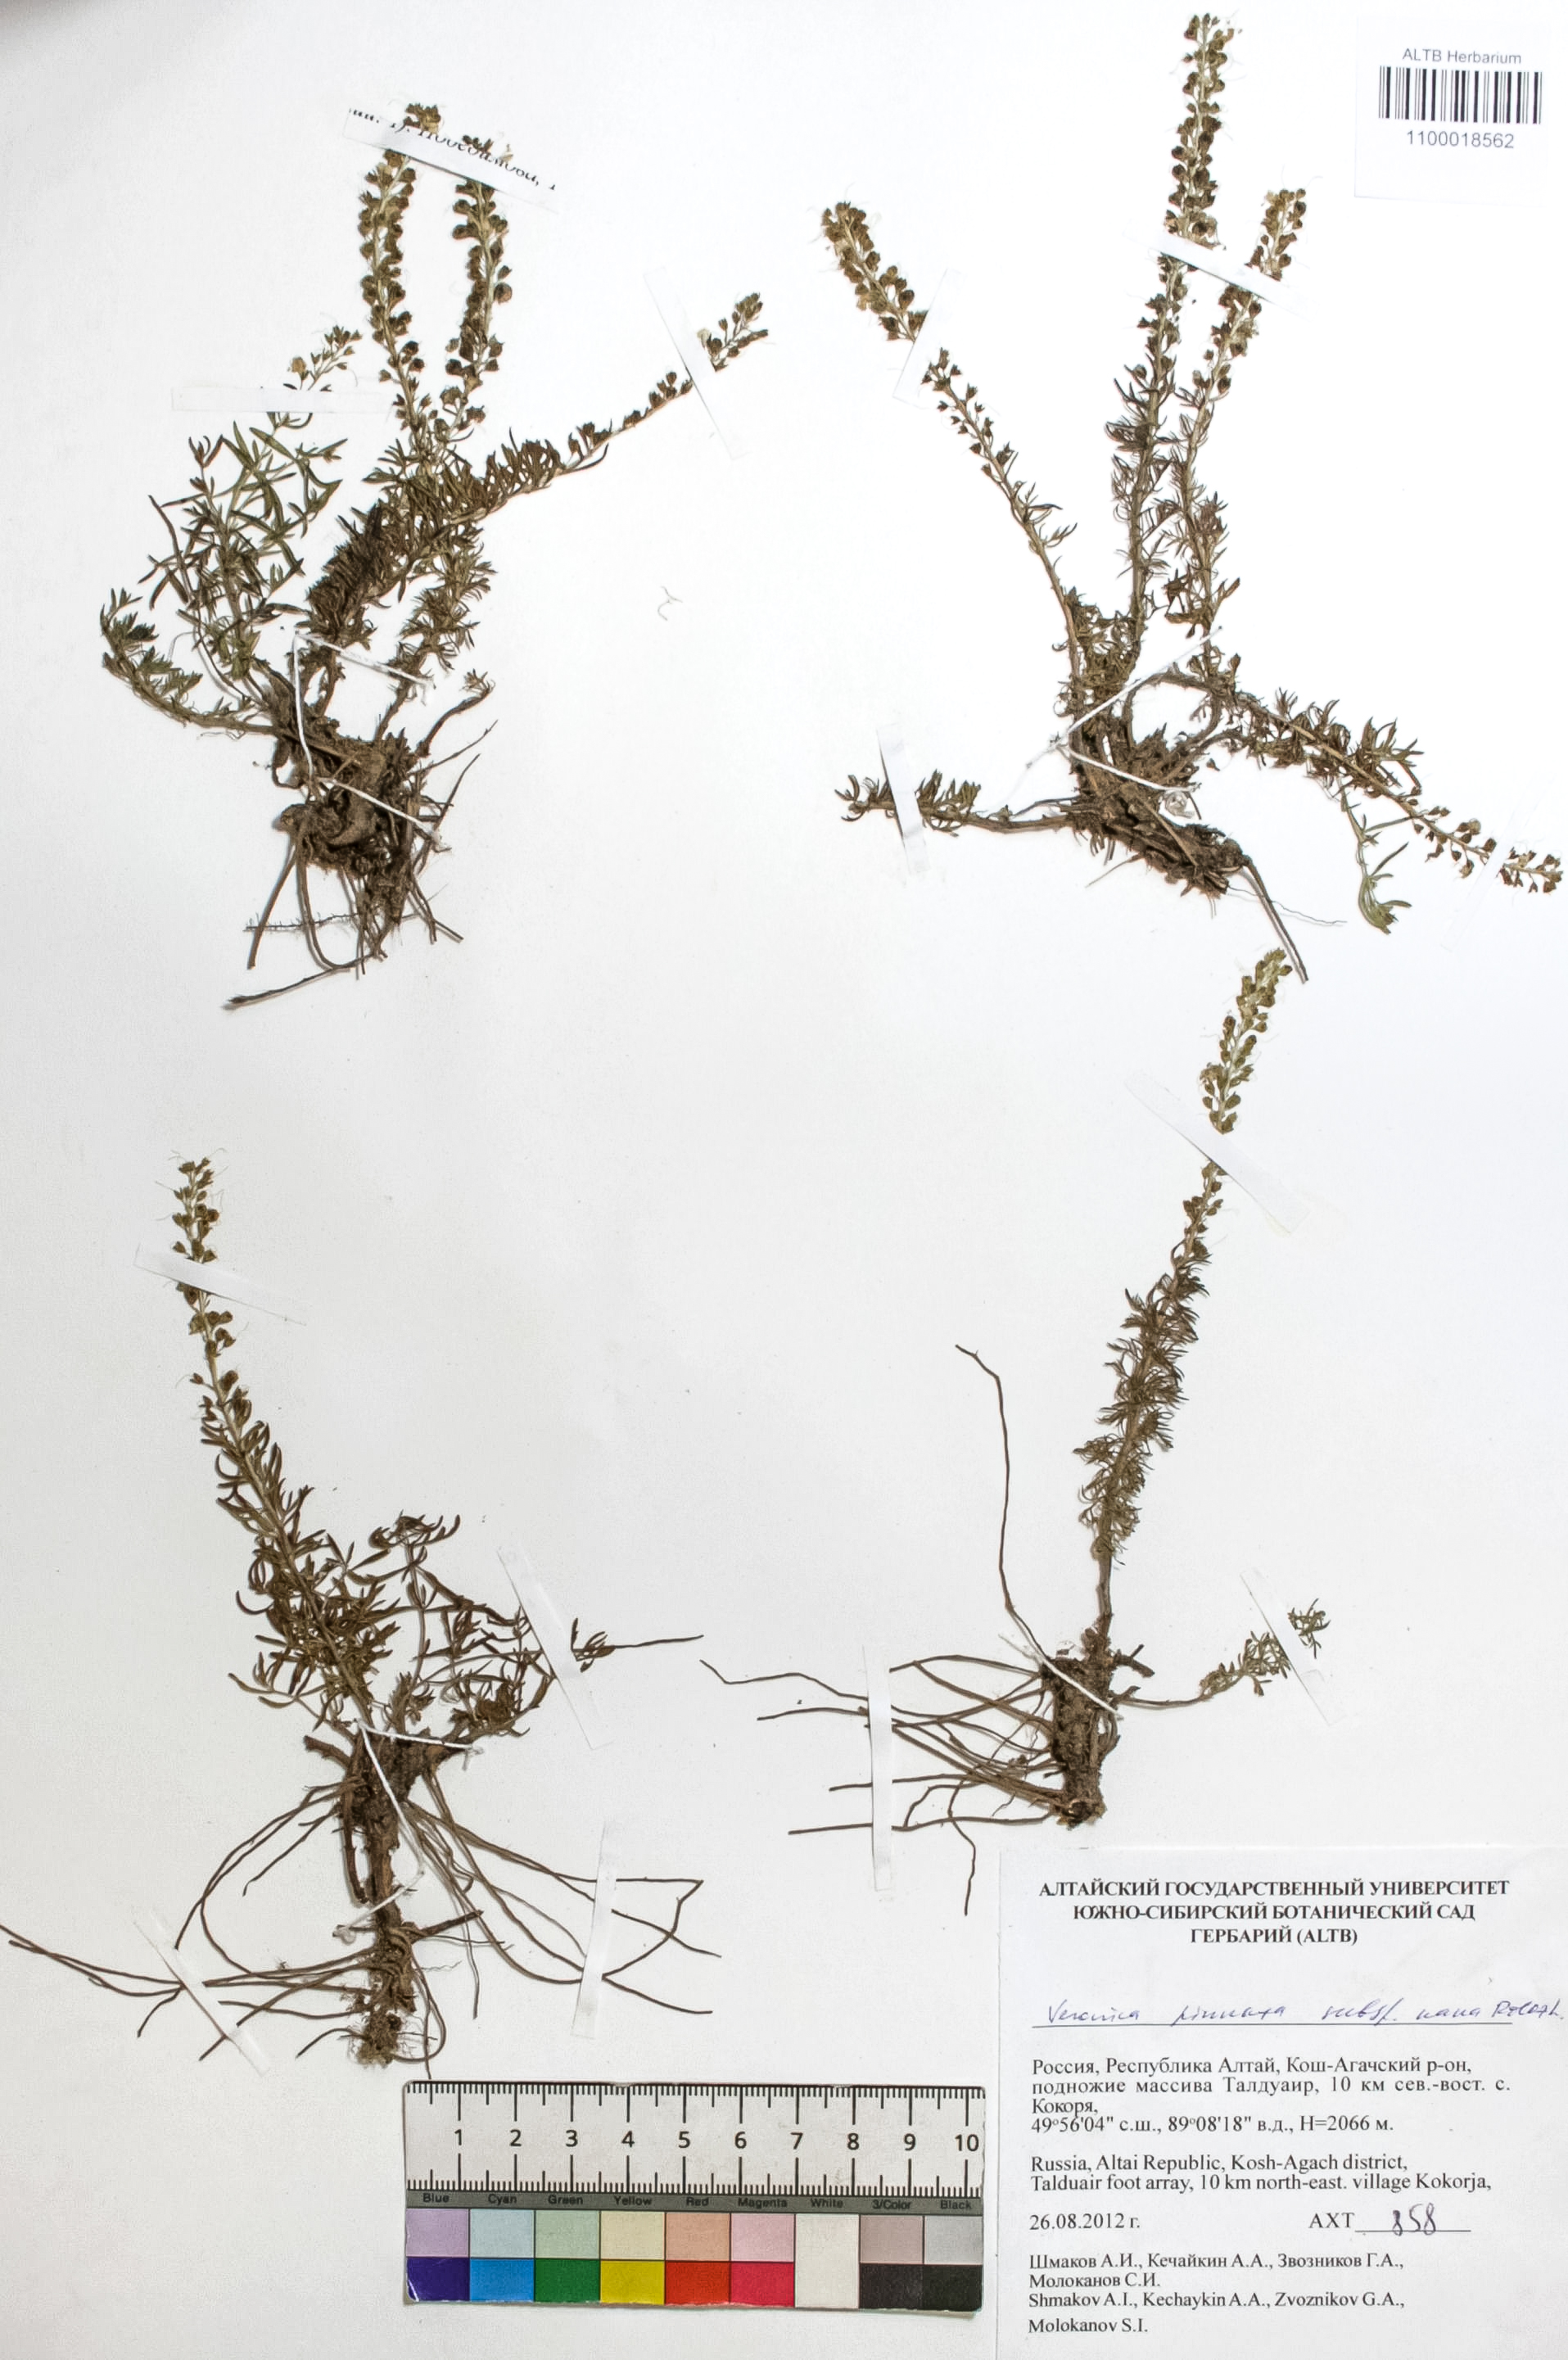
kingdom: Plantae
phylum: Tracheophyta
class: Magnoliopsida
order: Lamiales
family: Plantaginaceae
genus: Veronica
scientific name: Veronica pinnata
